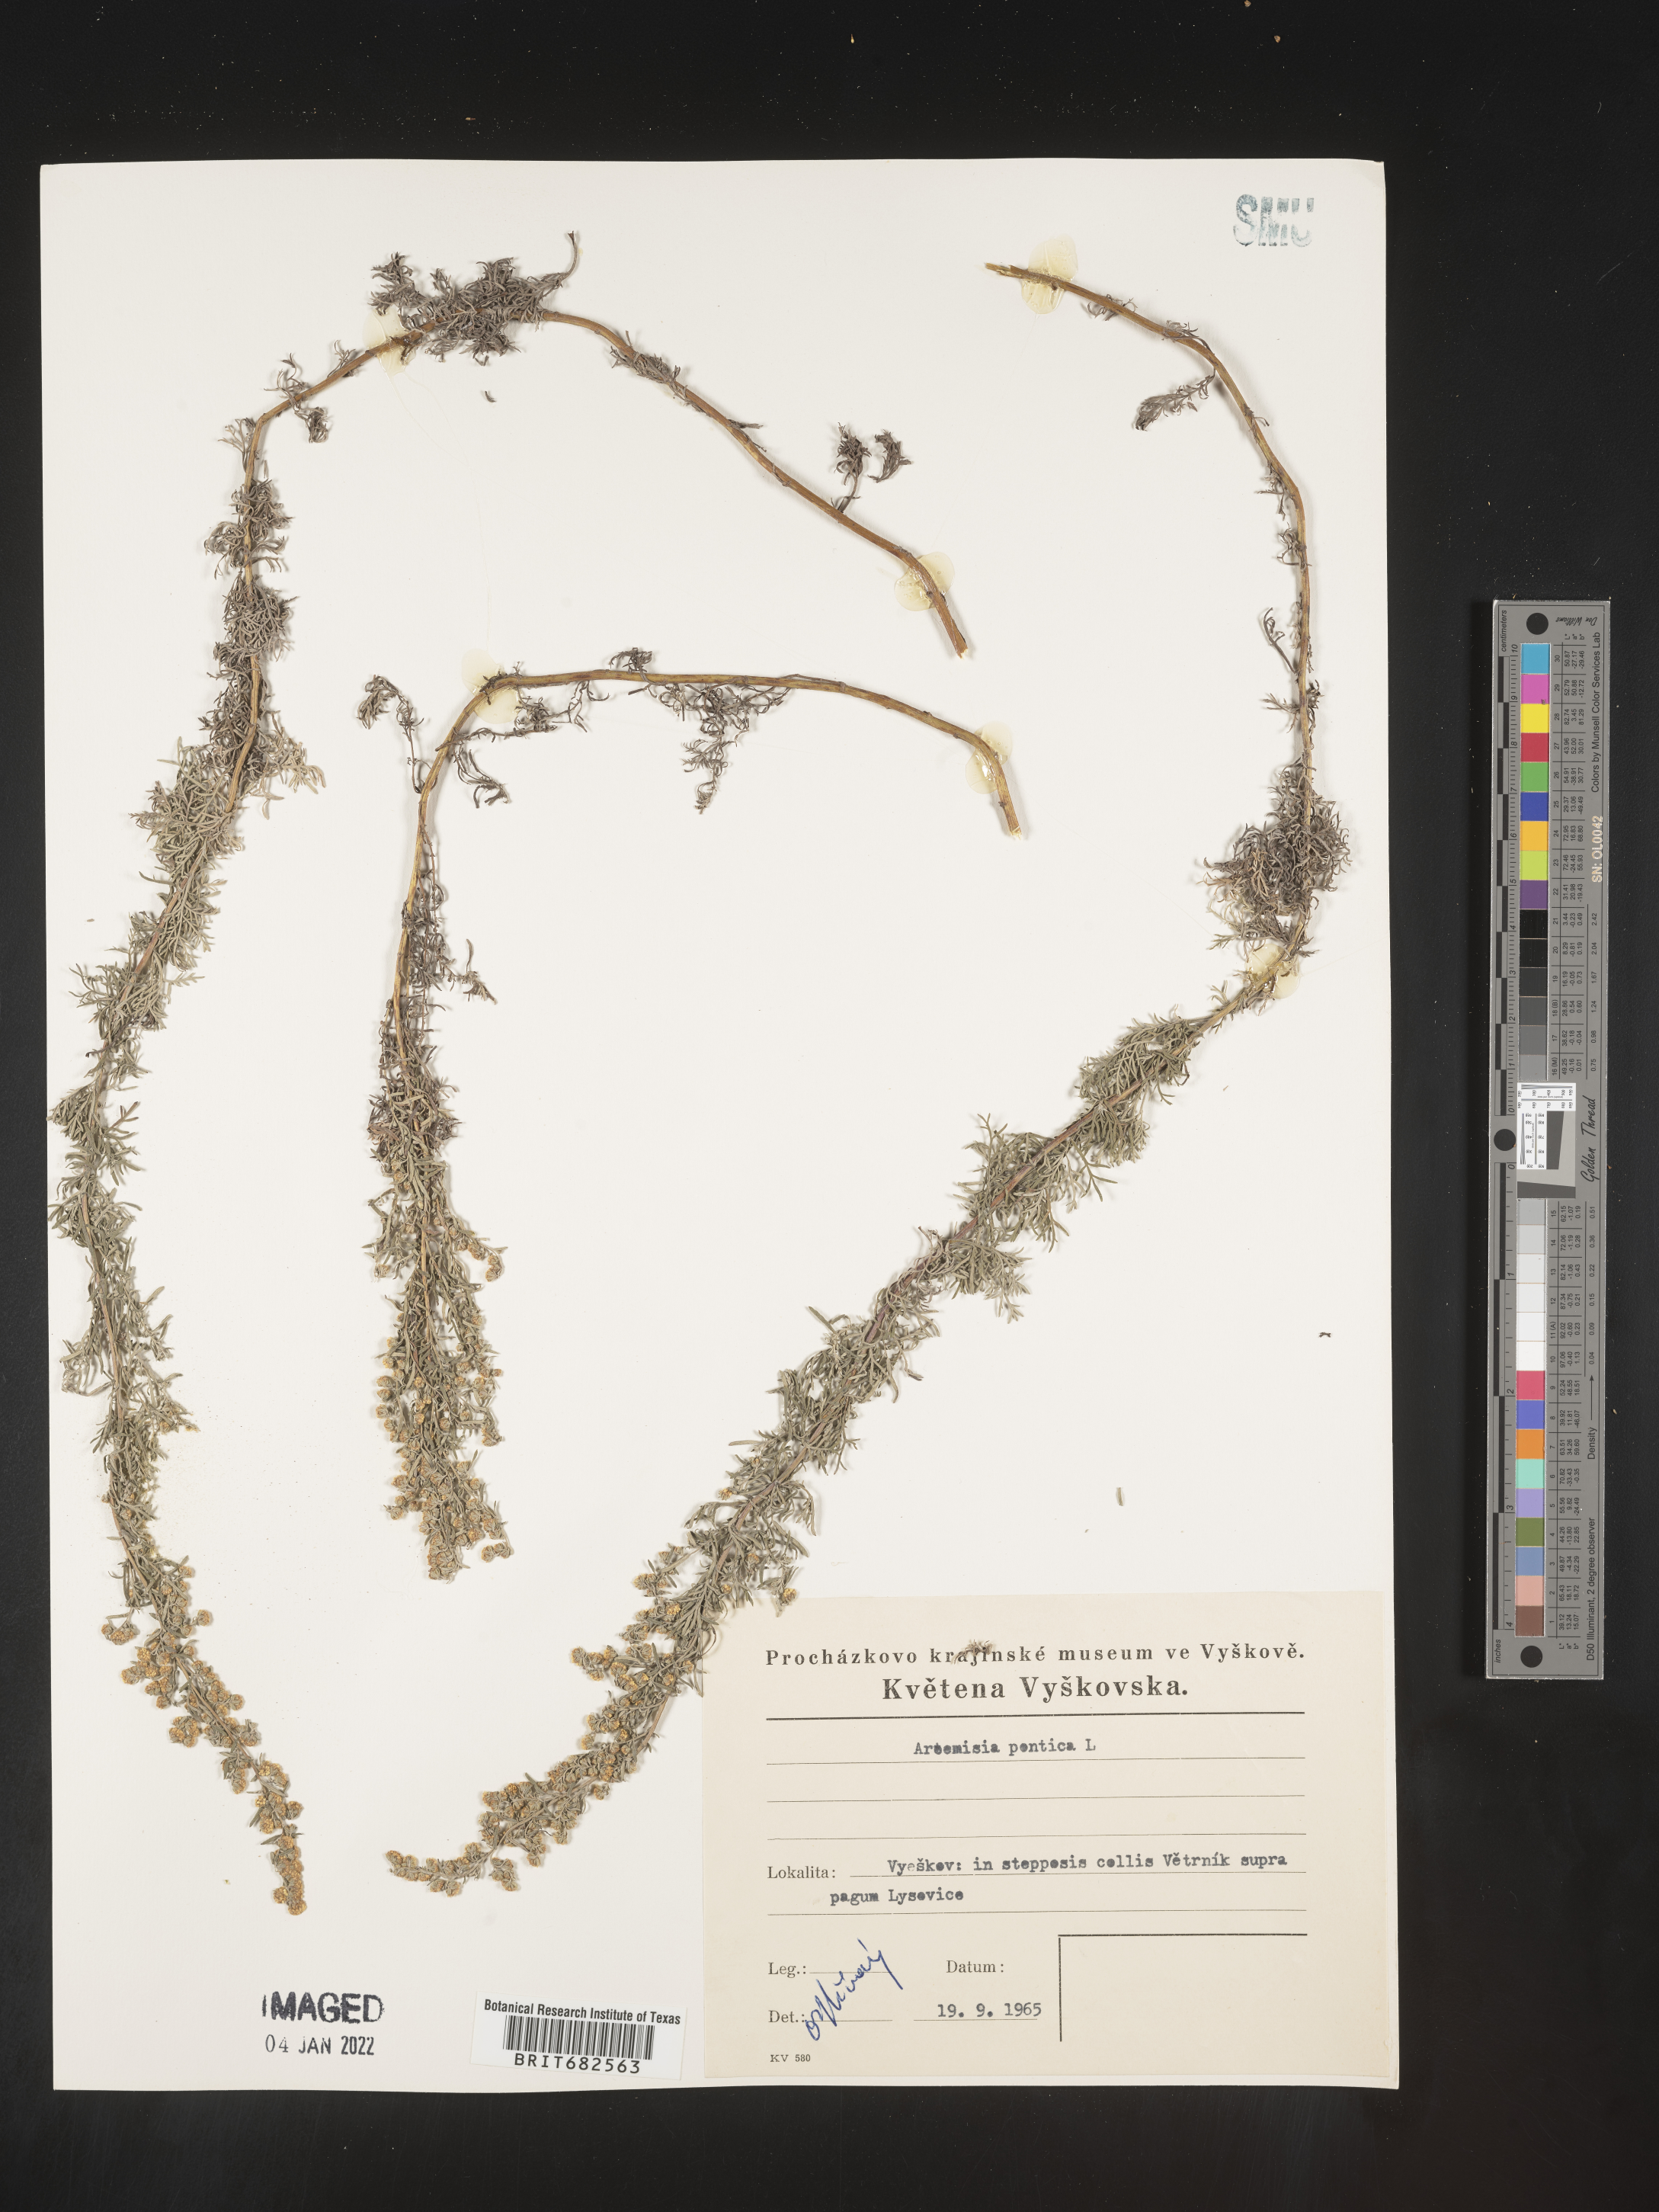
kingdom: Plantae
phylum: Tracheophyta
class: Magnoliopsida
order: Asterales
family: Asteraceae
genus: Artemisia
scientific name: Artemisia
